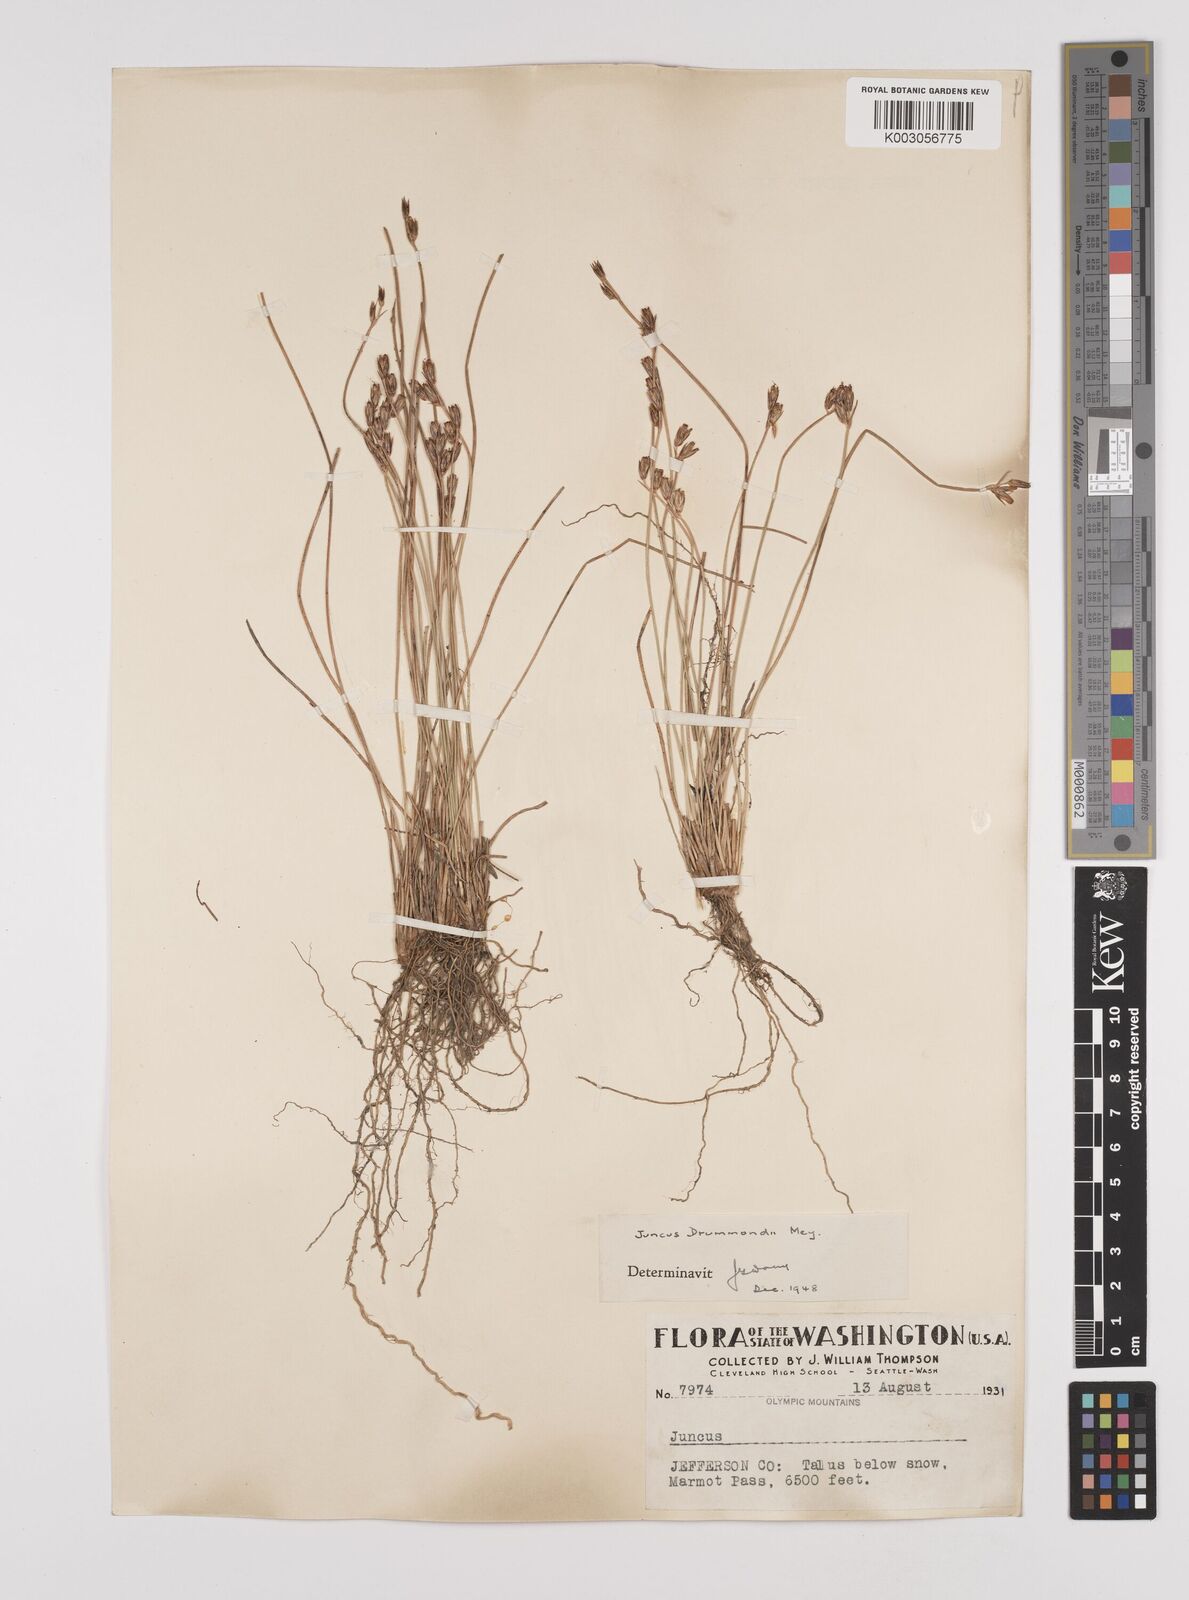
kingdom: Plantae
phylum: Tracheophyta
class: Liliopsida
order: Poales
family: Juncaceae
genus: Juncus
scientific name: Juncus drummondii
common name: Drummond's rush
